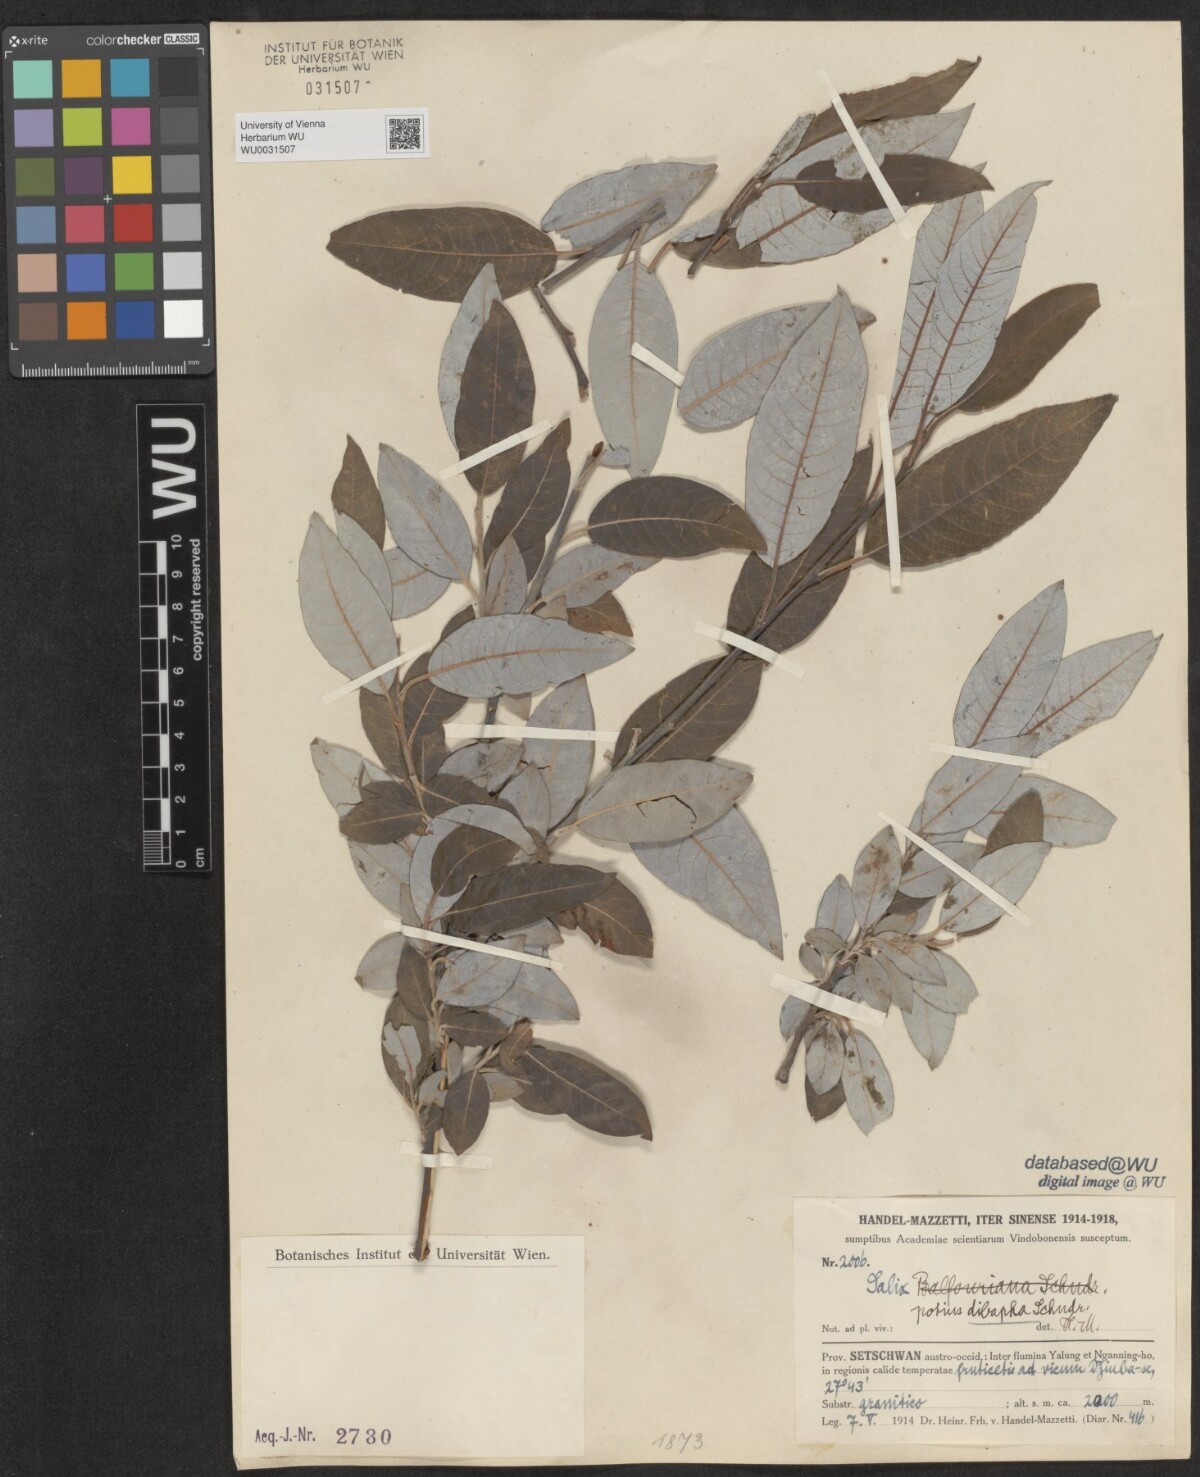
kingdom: Plantae
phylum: Tracheophyta
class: Magnoliopsida
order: Malpighiales
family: Salicaceae
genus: Salix
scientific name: Salix dibapha
